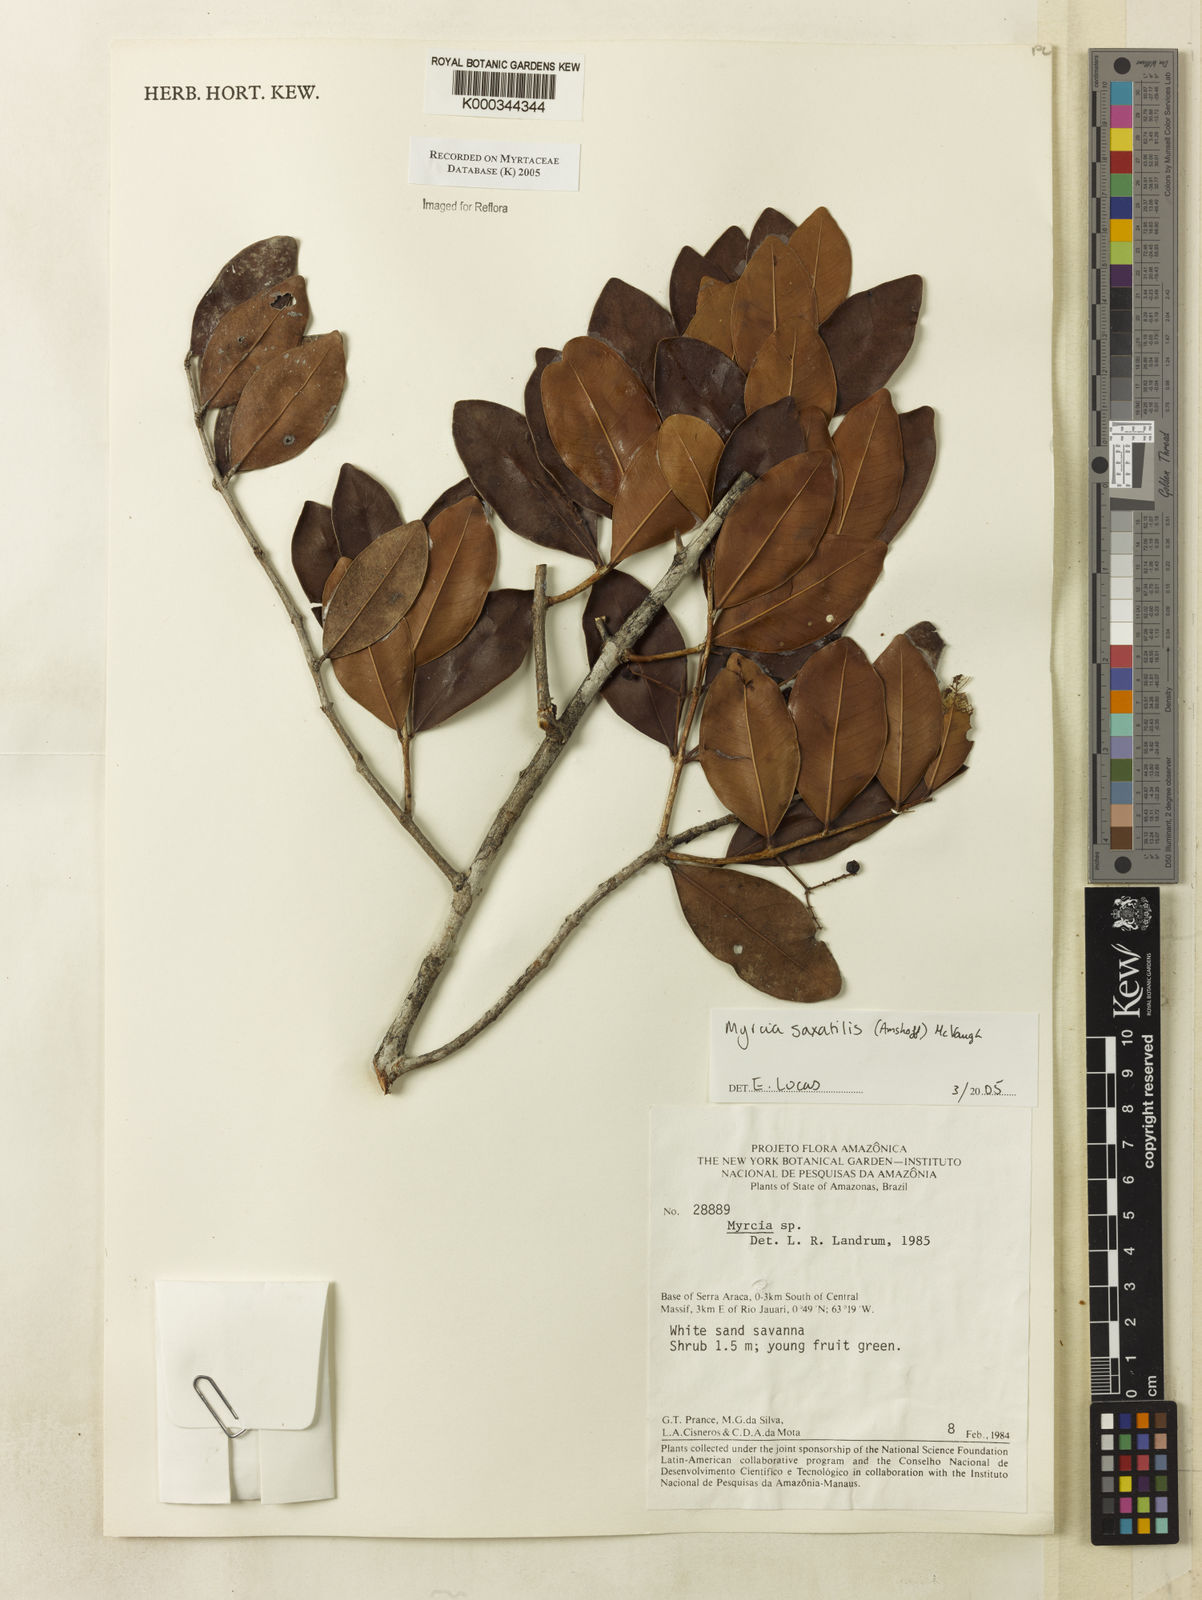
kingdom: Plantae
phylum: Tracheophyta
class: Magnoliopsida
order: Myrtales
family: Myrtaceae
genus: Myrcia
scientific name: Myrcia saxatilis
